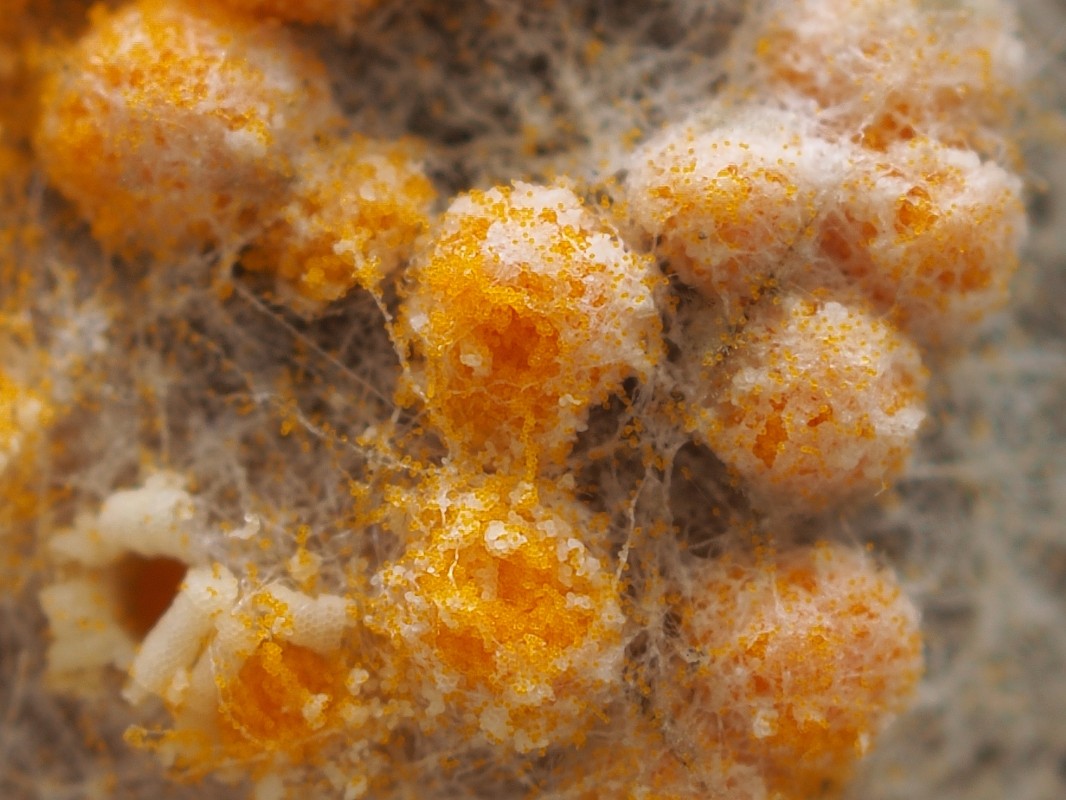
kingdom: Fungi
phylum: Basidiomycota
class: Pucciniomycetes
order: Pucciniales
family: Pucciniaceae
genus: Puccinia
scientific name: Puccinia poarum
